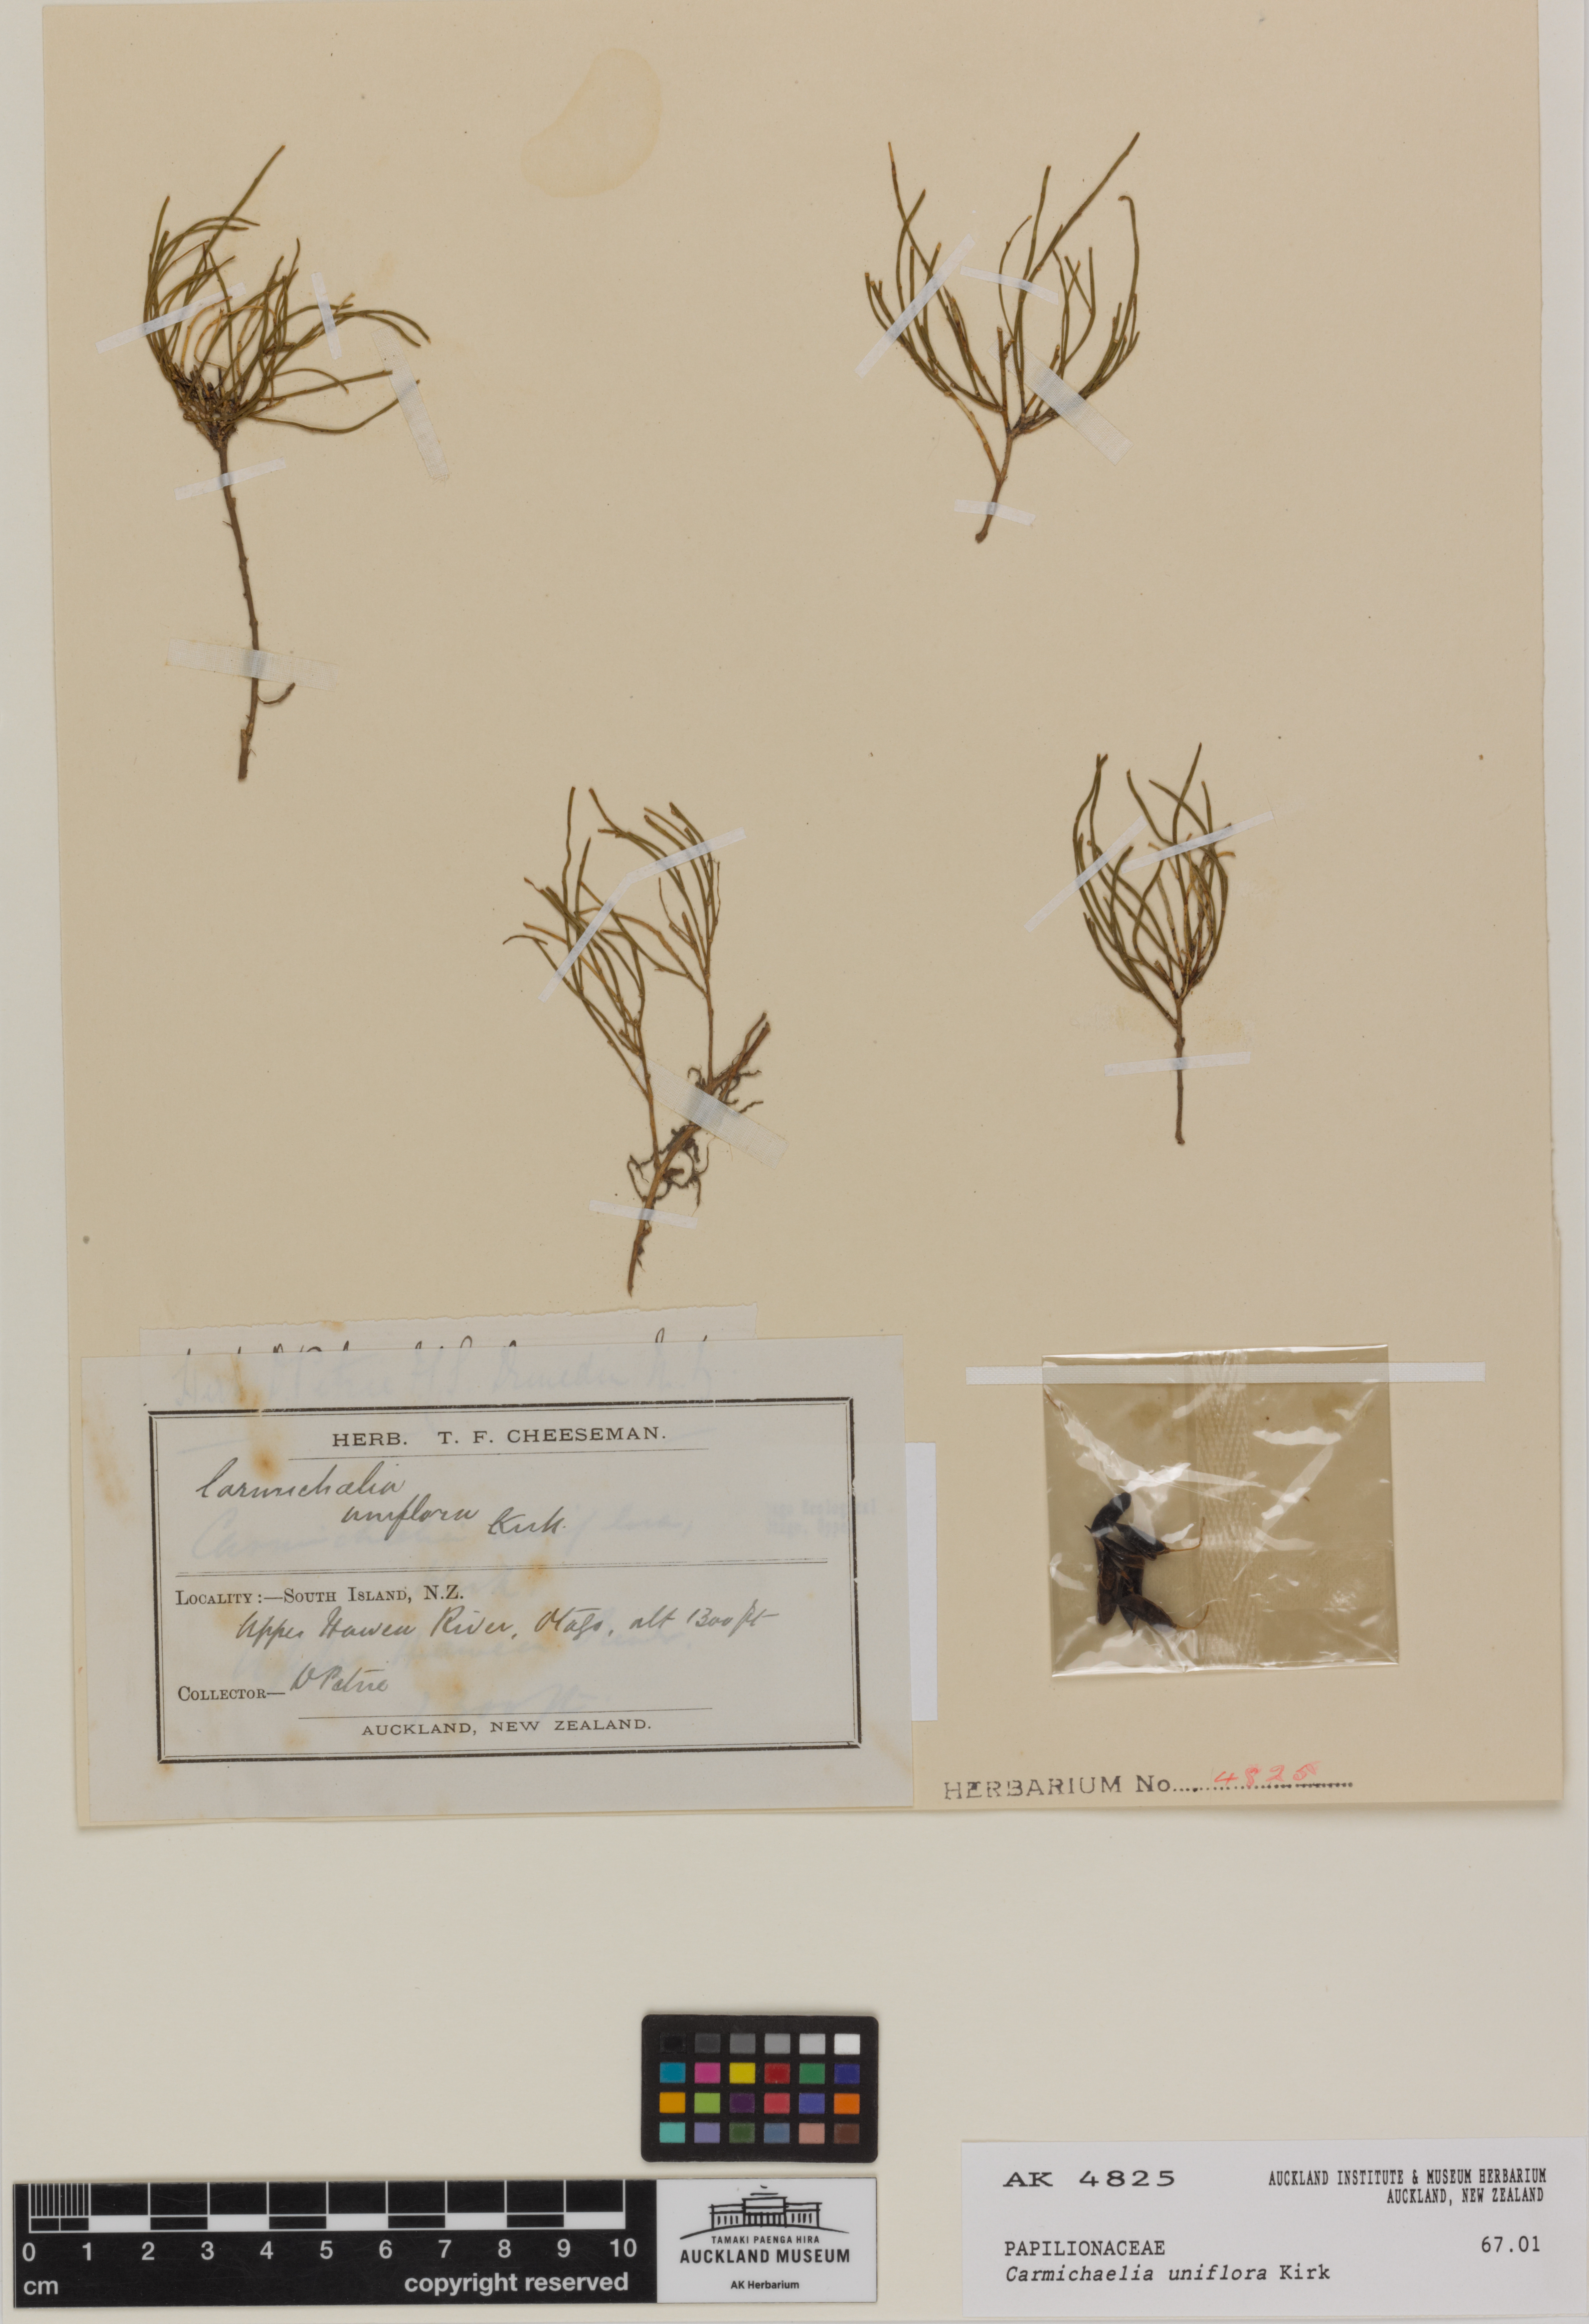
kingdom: Plantae
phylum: Tracheophyta
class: Magnoliopsida
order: Fabales
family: Fabaceae
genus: Carmichaelia
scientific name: Carmichaelia uniflora
